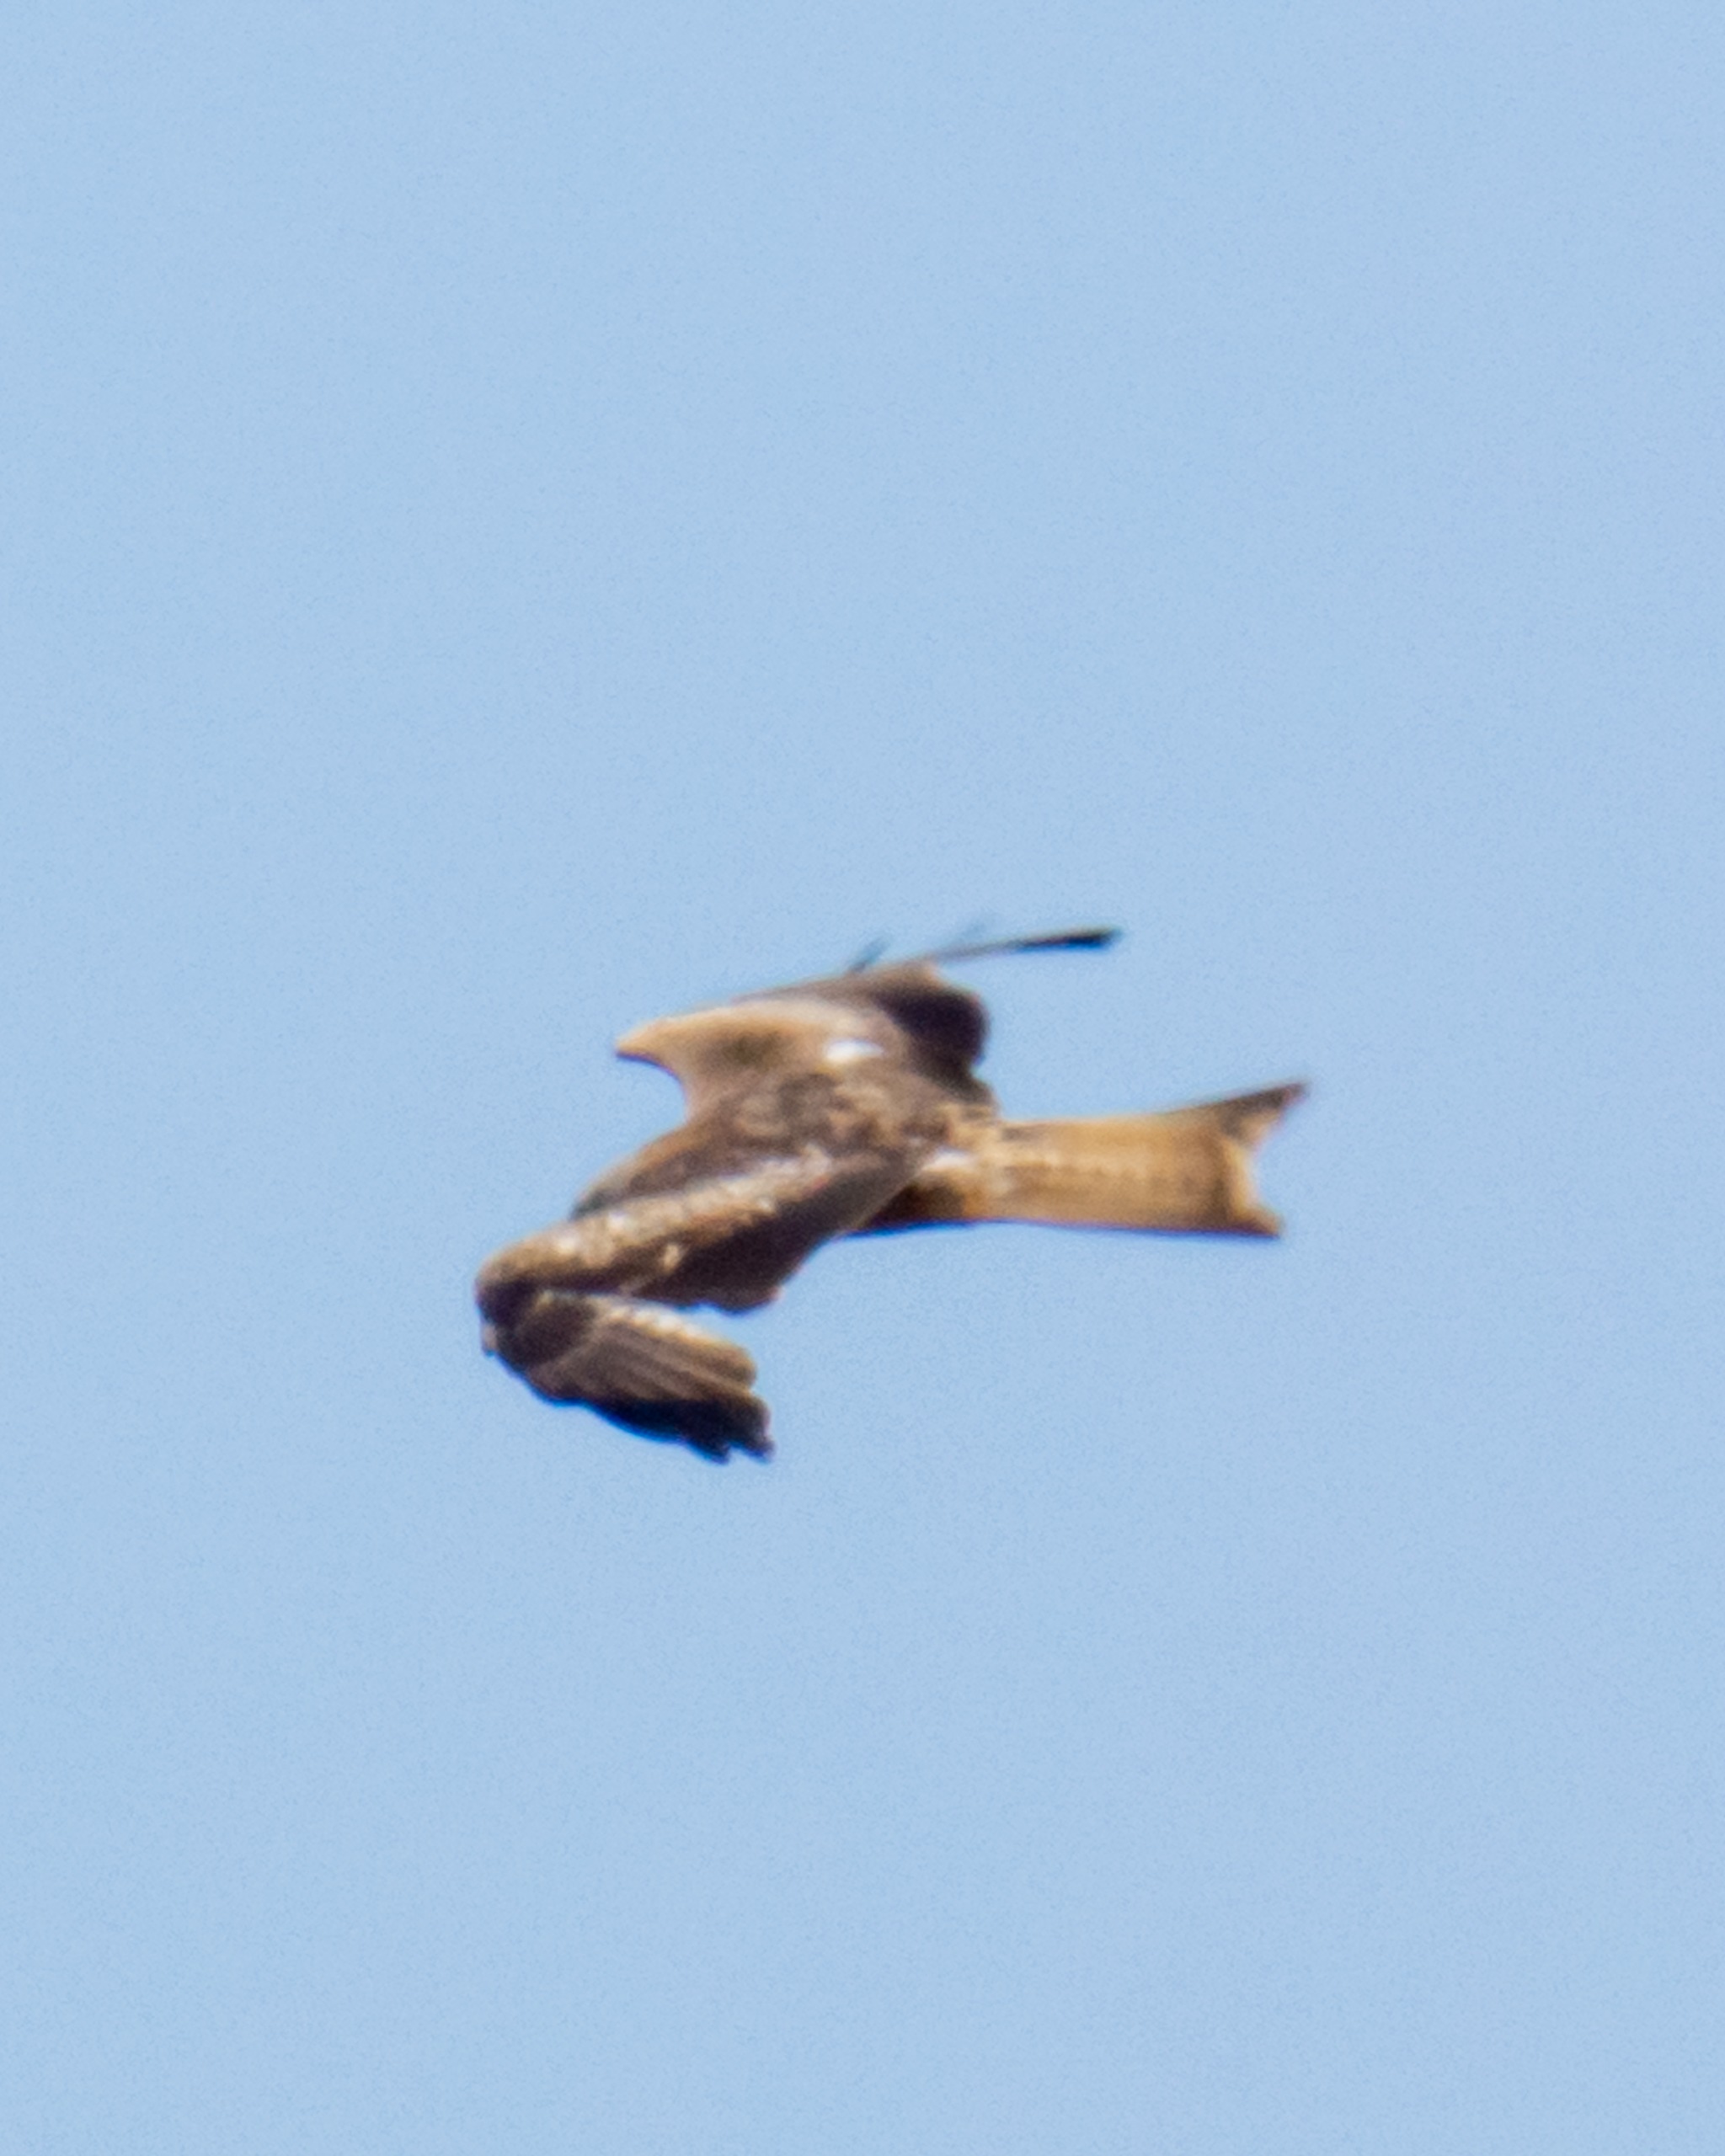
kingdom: Animalia
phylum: Chordata
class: Aves
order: Accipitriformes
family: Accipitridae
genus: Milvus
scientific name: Milvus milvus
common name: Rød glente
